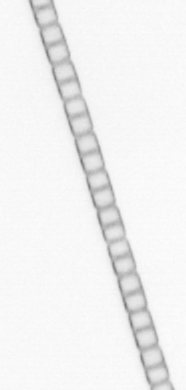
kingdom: Chromista
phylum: Ochrophyta
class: Bacillariophyceae
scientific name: Bacillariophyceae
